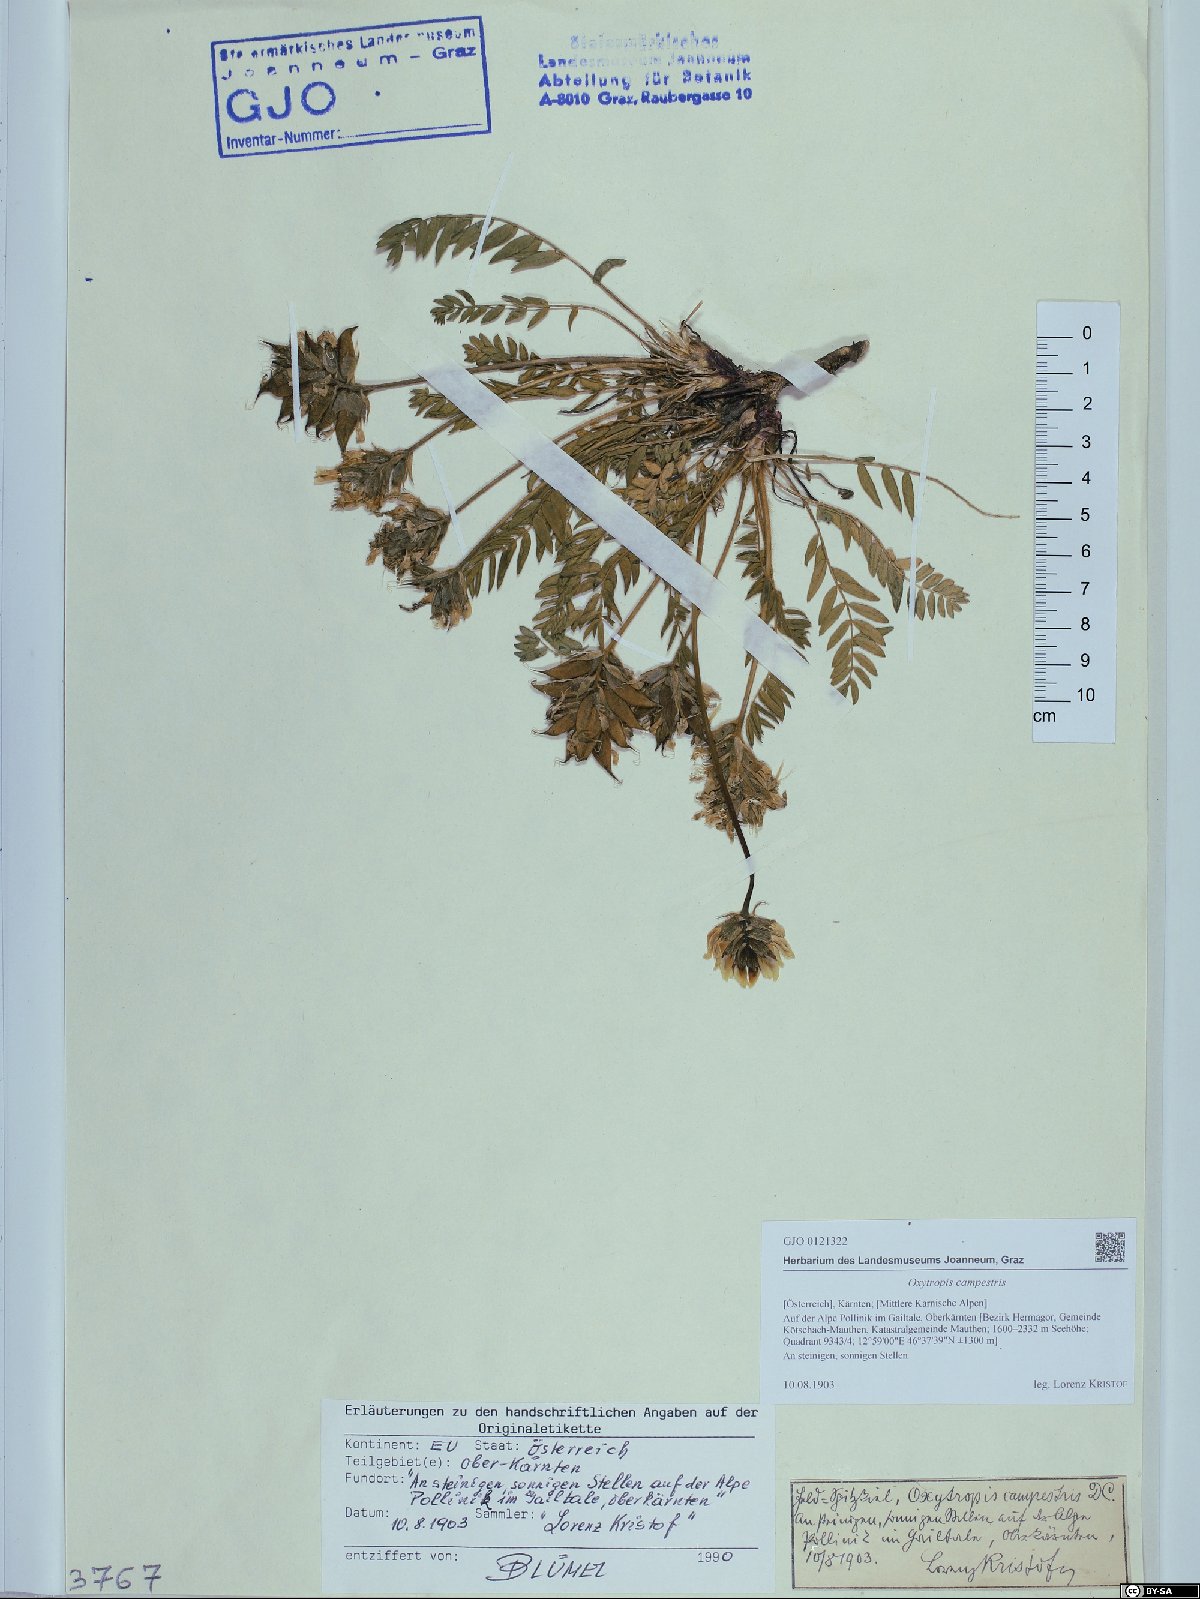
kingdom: Plantae
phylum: Tracheophyta
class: Magnoliopsida
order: Fabales
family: Fabaceae
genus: Oxytropis
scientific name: Oxytropis campestris
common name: Field locoweed
